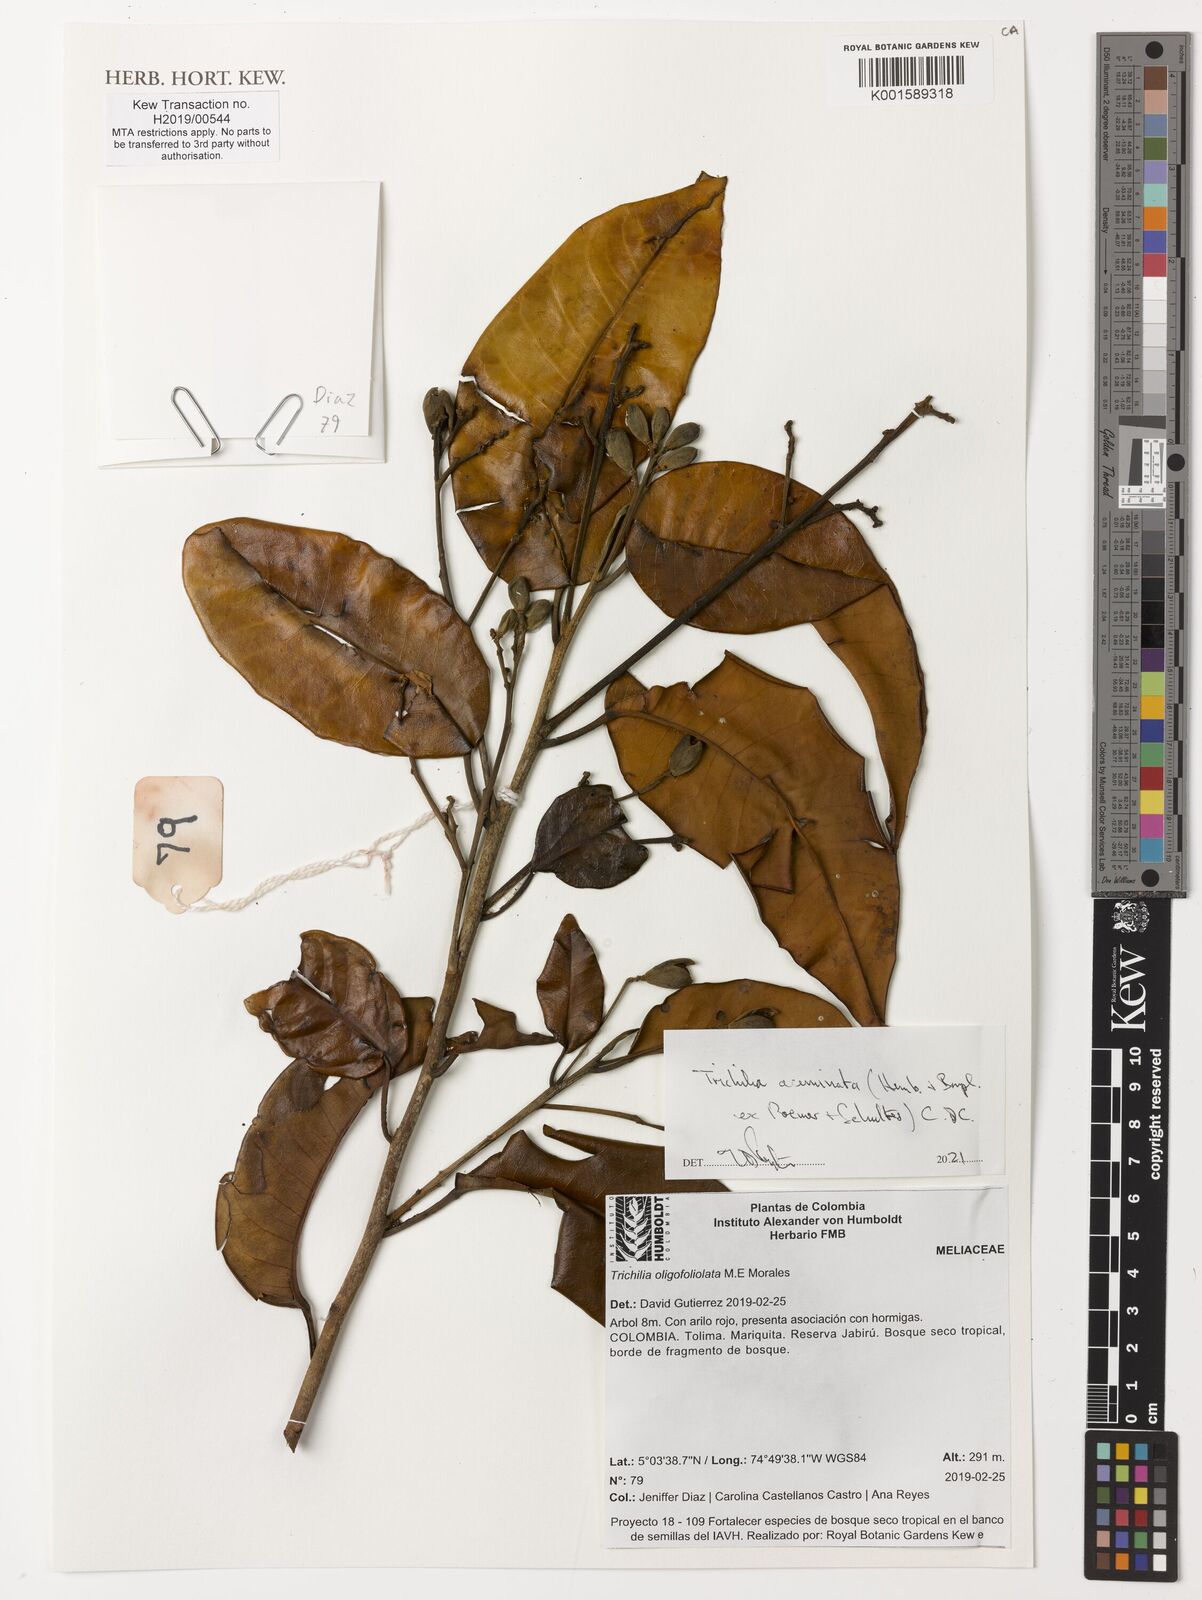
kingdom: Plantae
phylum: Tracheophyta
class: Magnoliopsida
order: Sapindales
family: Meliaceae
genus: Trichilia
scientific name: Trichilia acuminata
